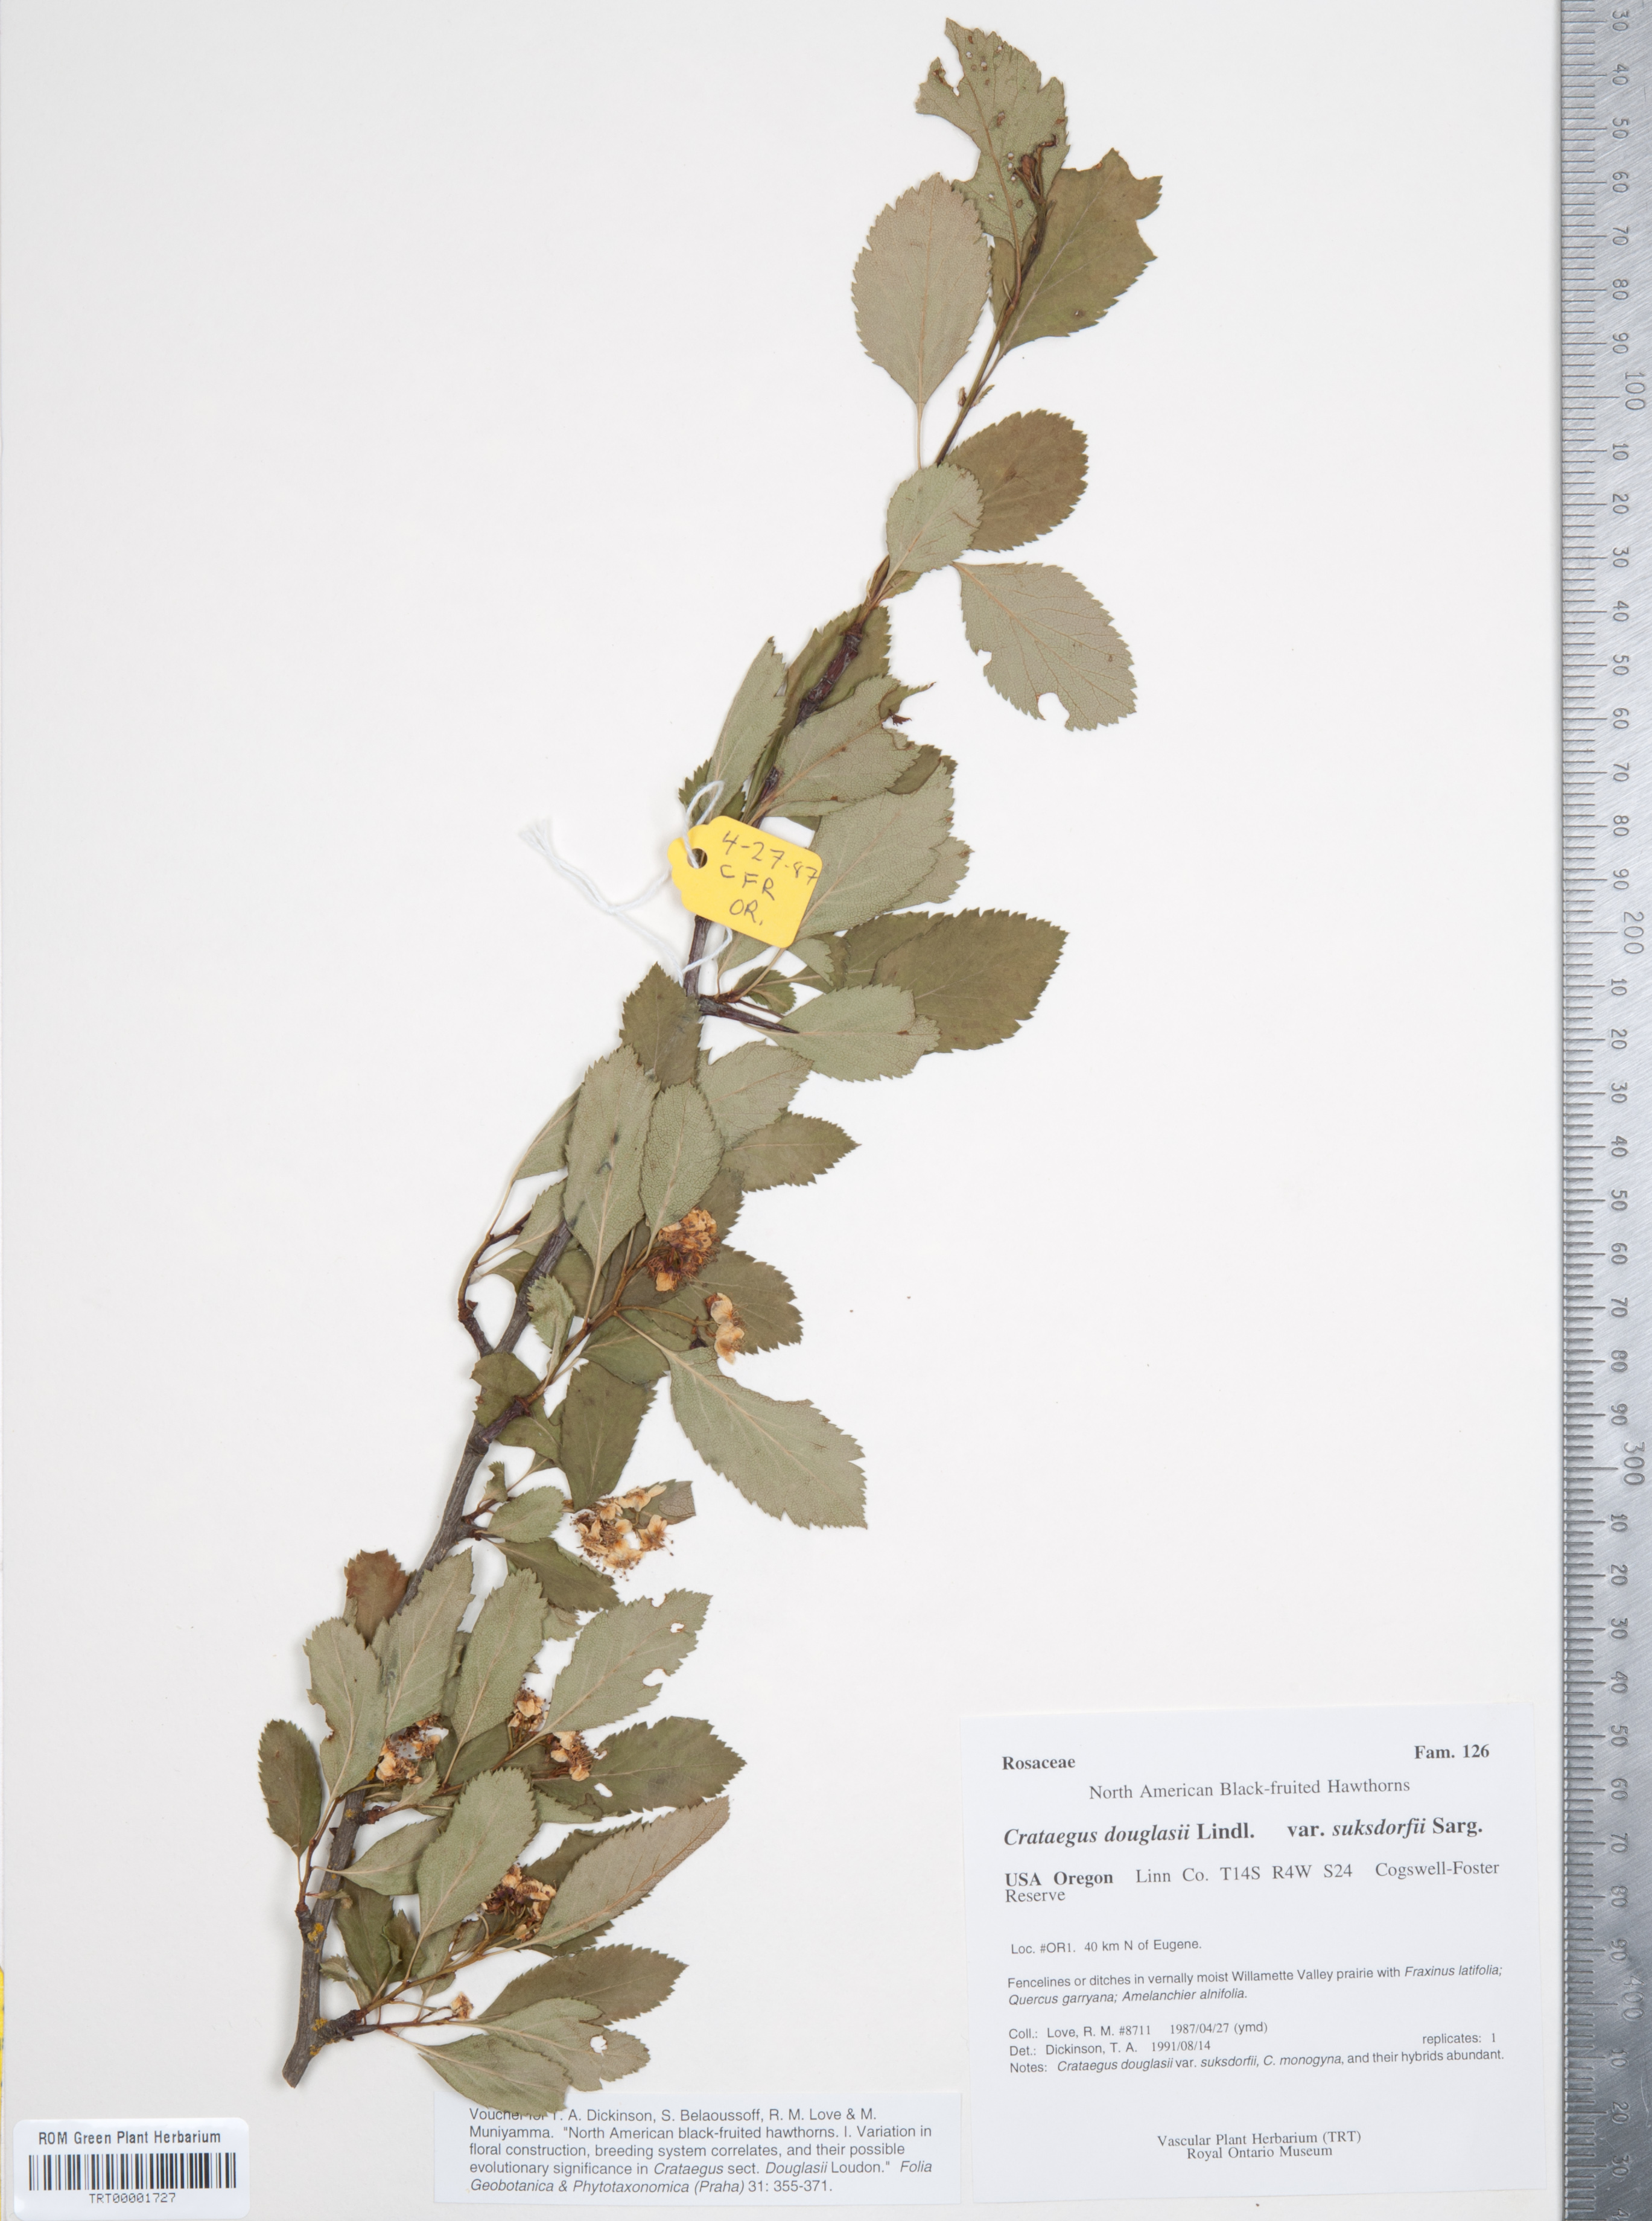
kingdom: Plantae
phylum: Tracheophyta
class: Magnoliopsida
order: Rosales
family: Rosaceae
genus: Crataegus
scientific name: Crataegus gaylussacia
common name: Huckleberry hawthorn
